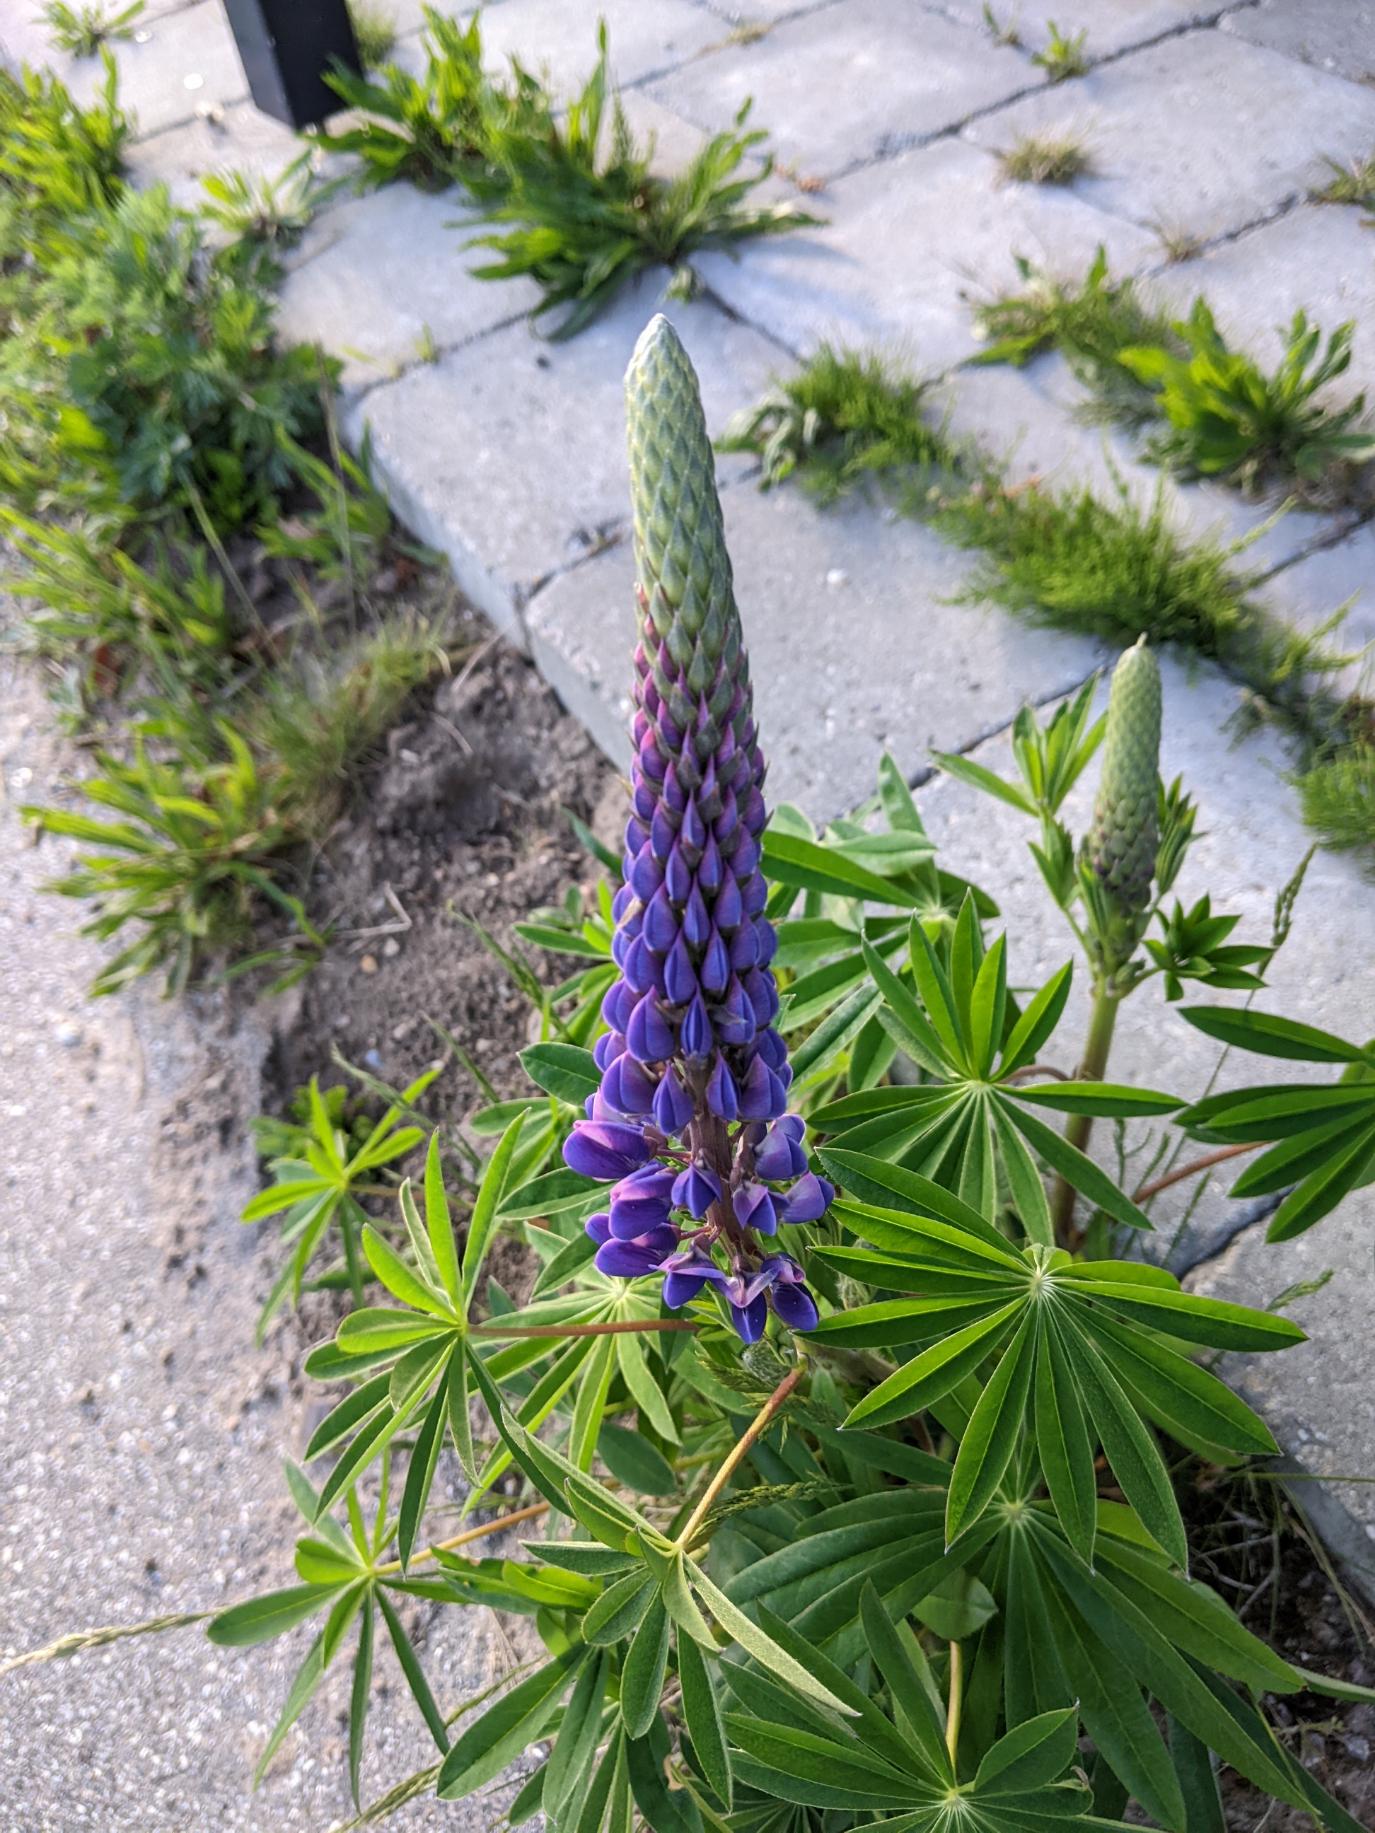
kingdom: Plantae
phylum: Tracheophyta
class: Magnoliopsida
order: Fabales
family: Fabaceae
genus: Lupinus
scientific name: Lupinus polyphyllus
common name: Mangebladet lupin
